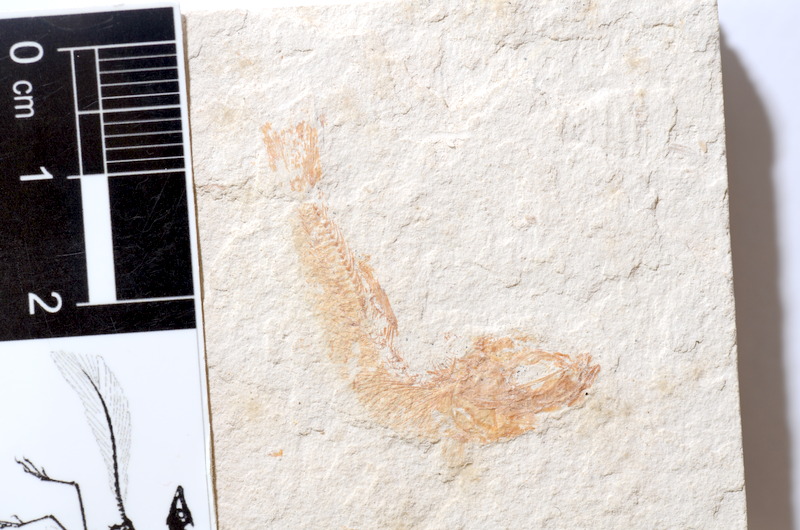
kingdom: Animalia
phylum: Chordata
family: Ascalaboidae
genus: Tharsis
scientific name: Tharsis dubius
